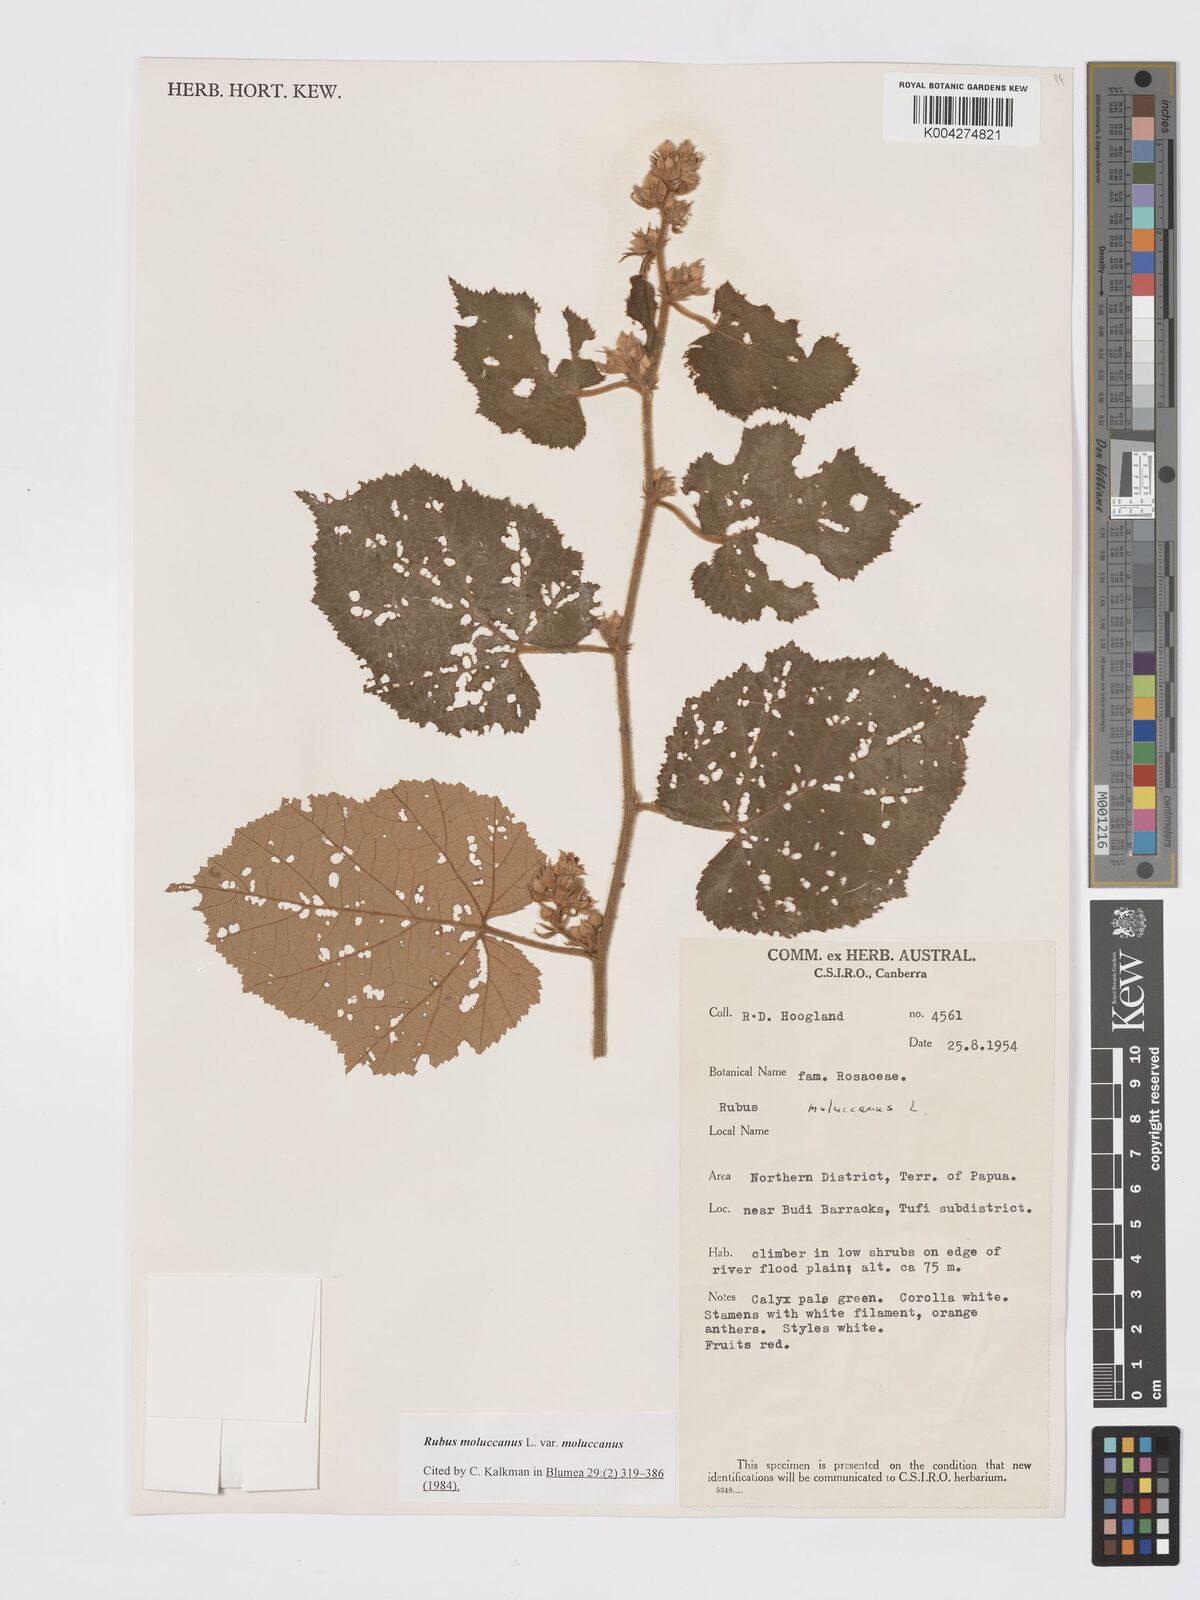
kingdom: Plantae
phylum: Tracheophyta
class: Magnoliopsida
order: Rosales
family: Rosaceae
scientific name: Rosaceae
